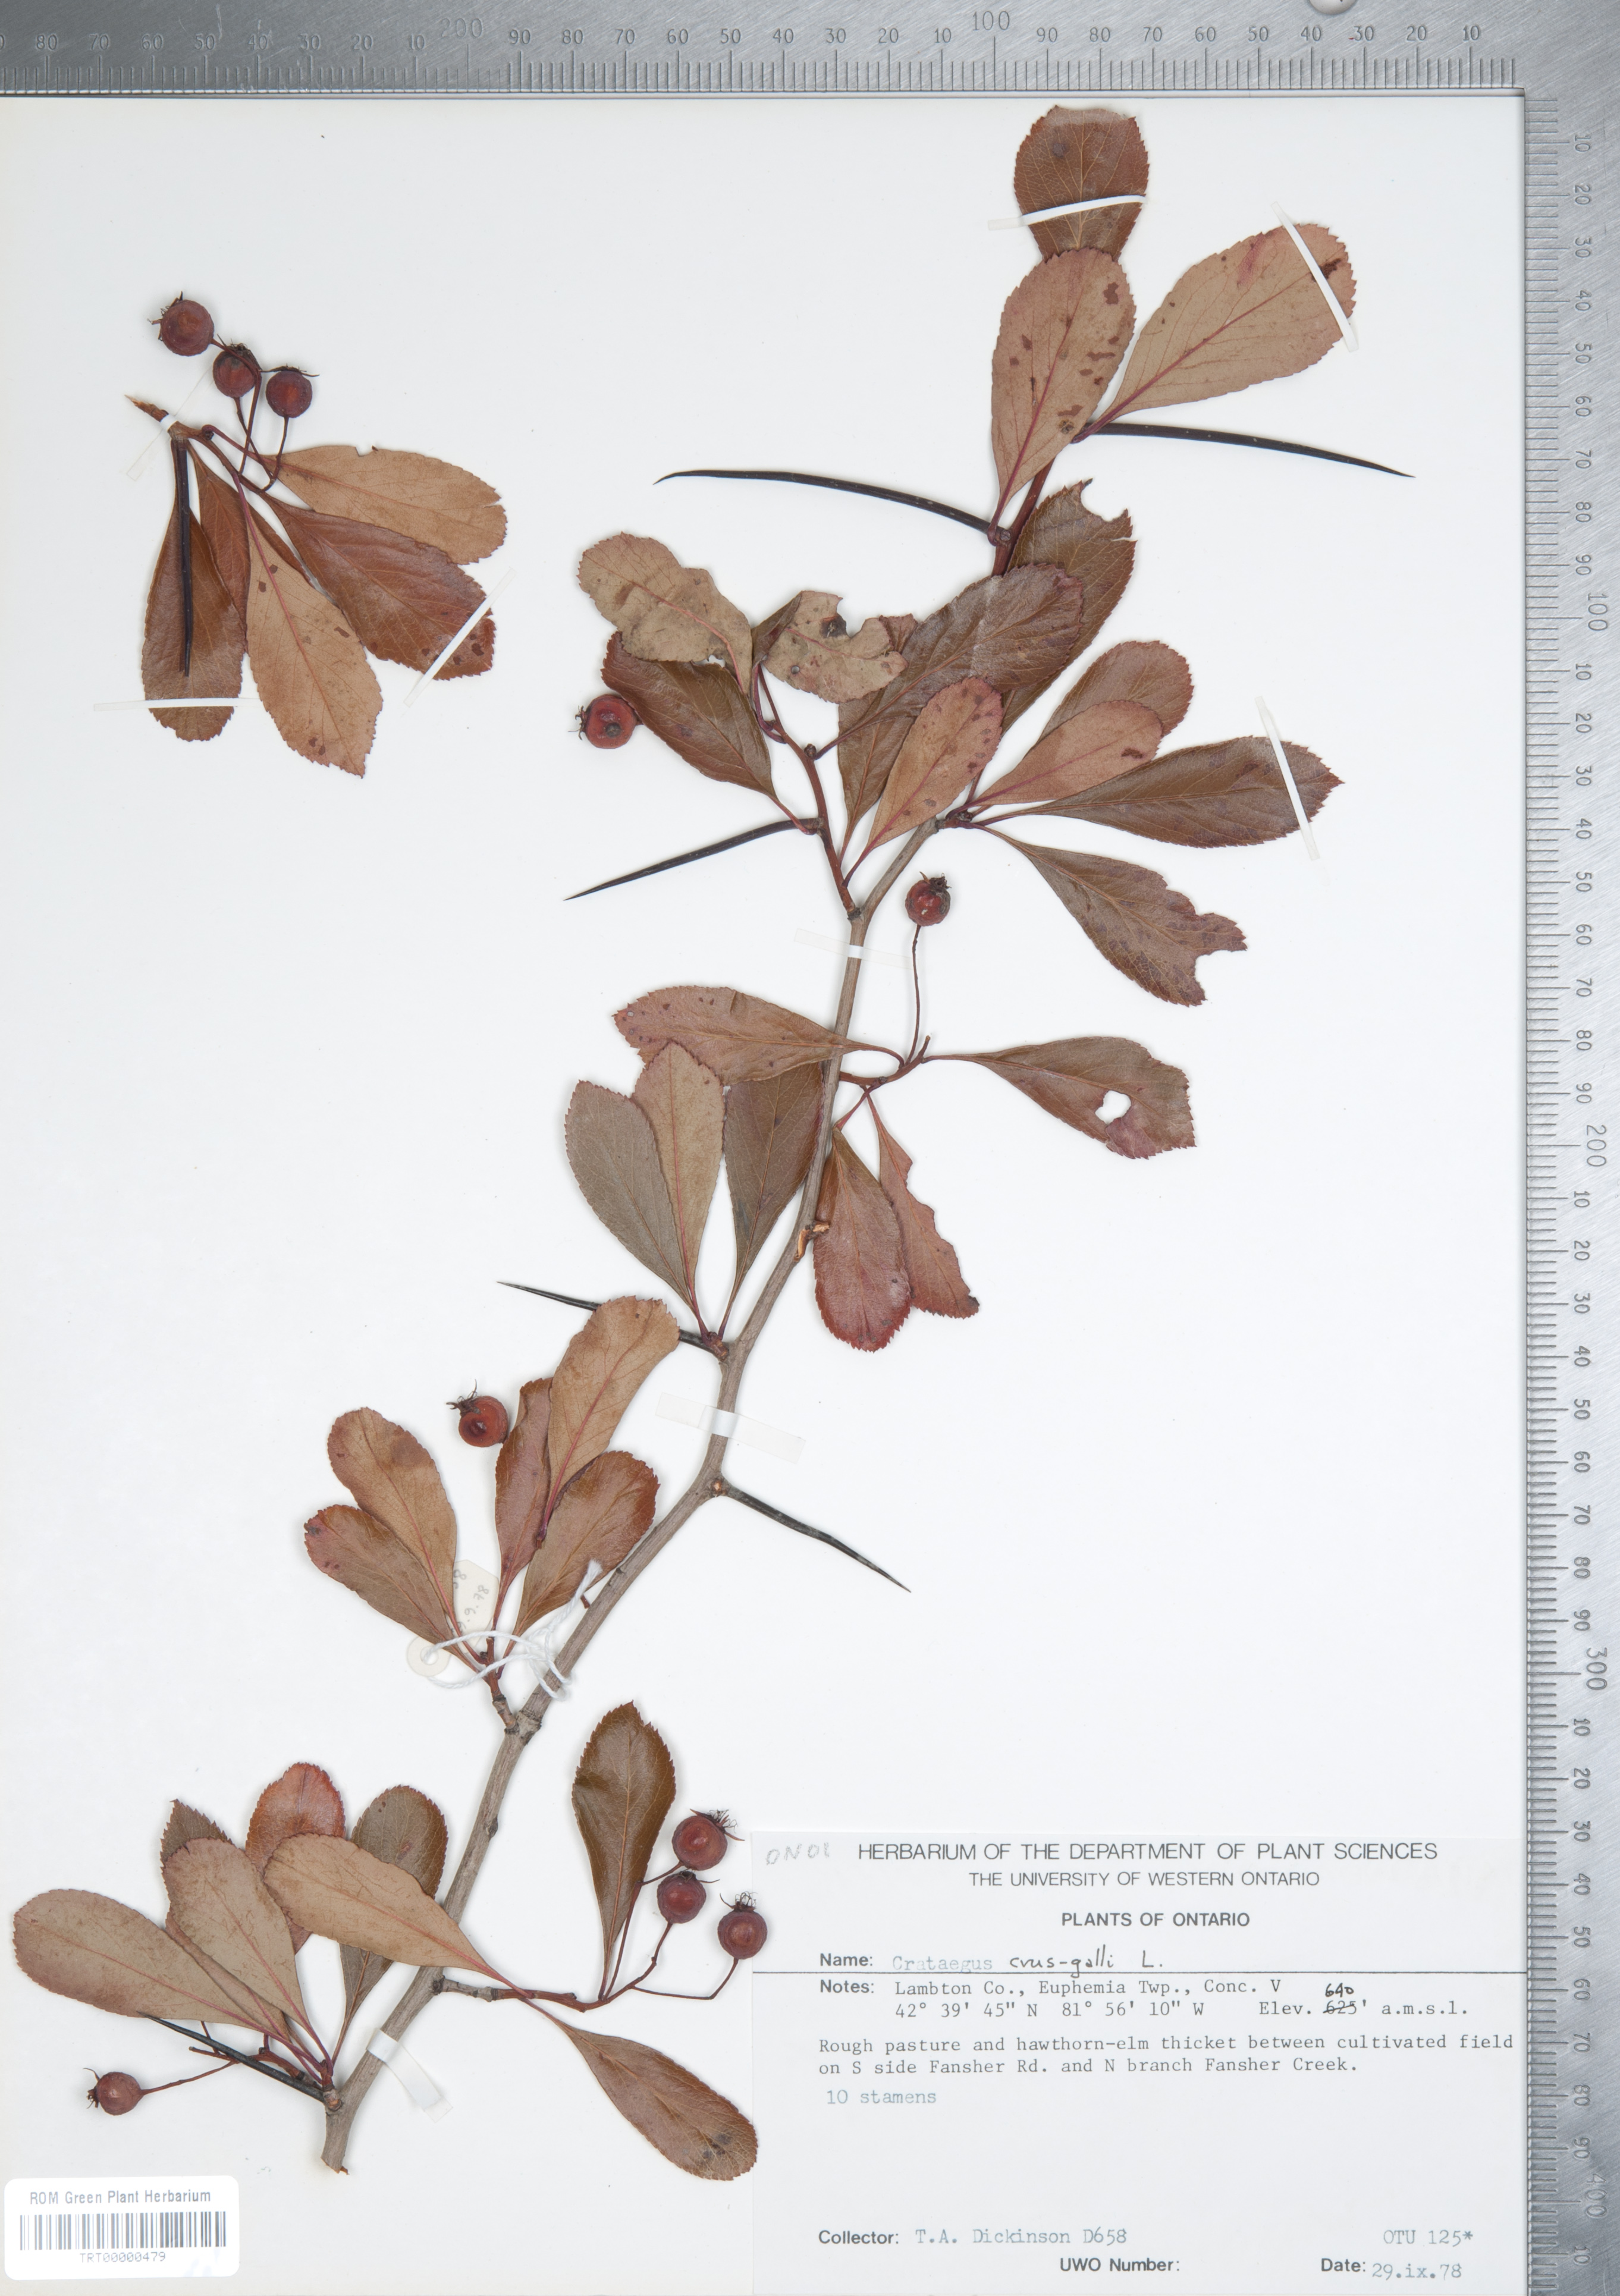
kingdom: Plantae
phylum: Tracheophyta
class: Magnoliopsida
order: Rosales
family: Rosaceae
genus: Crataegus
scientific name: Crataegus crus-galli
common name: Cockspurthorn
